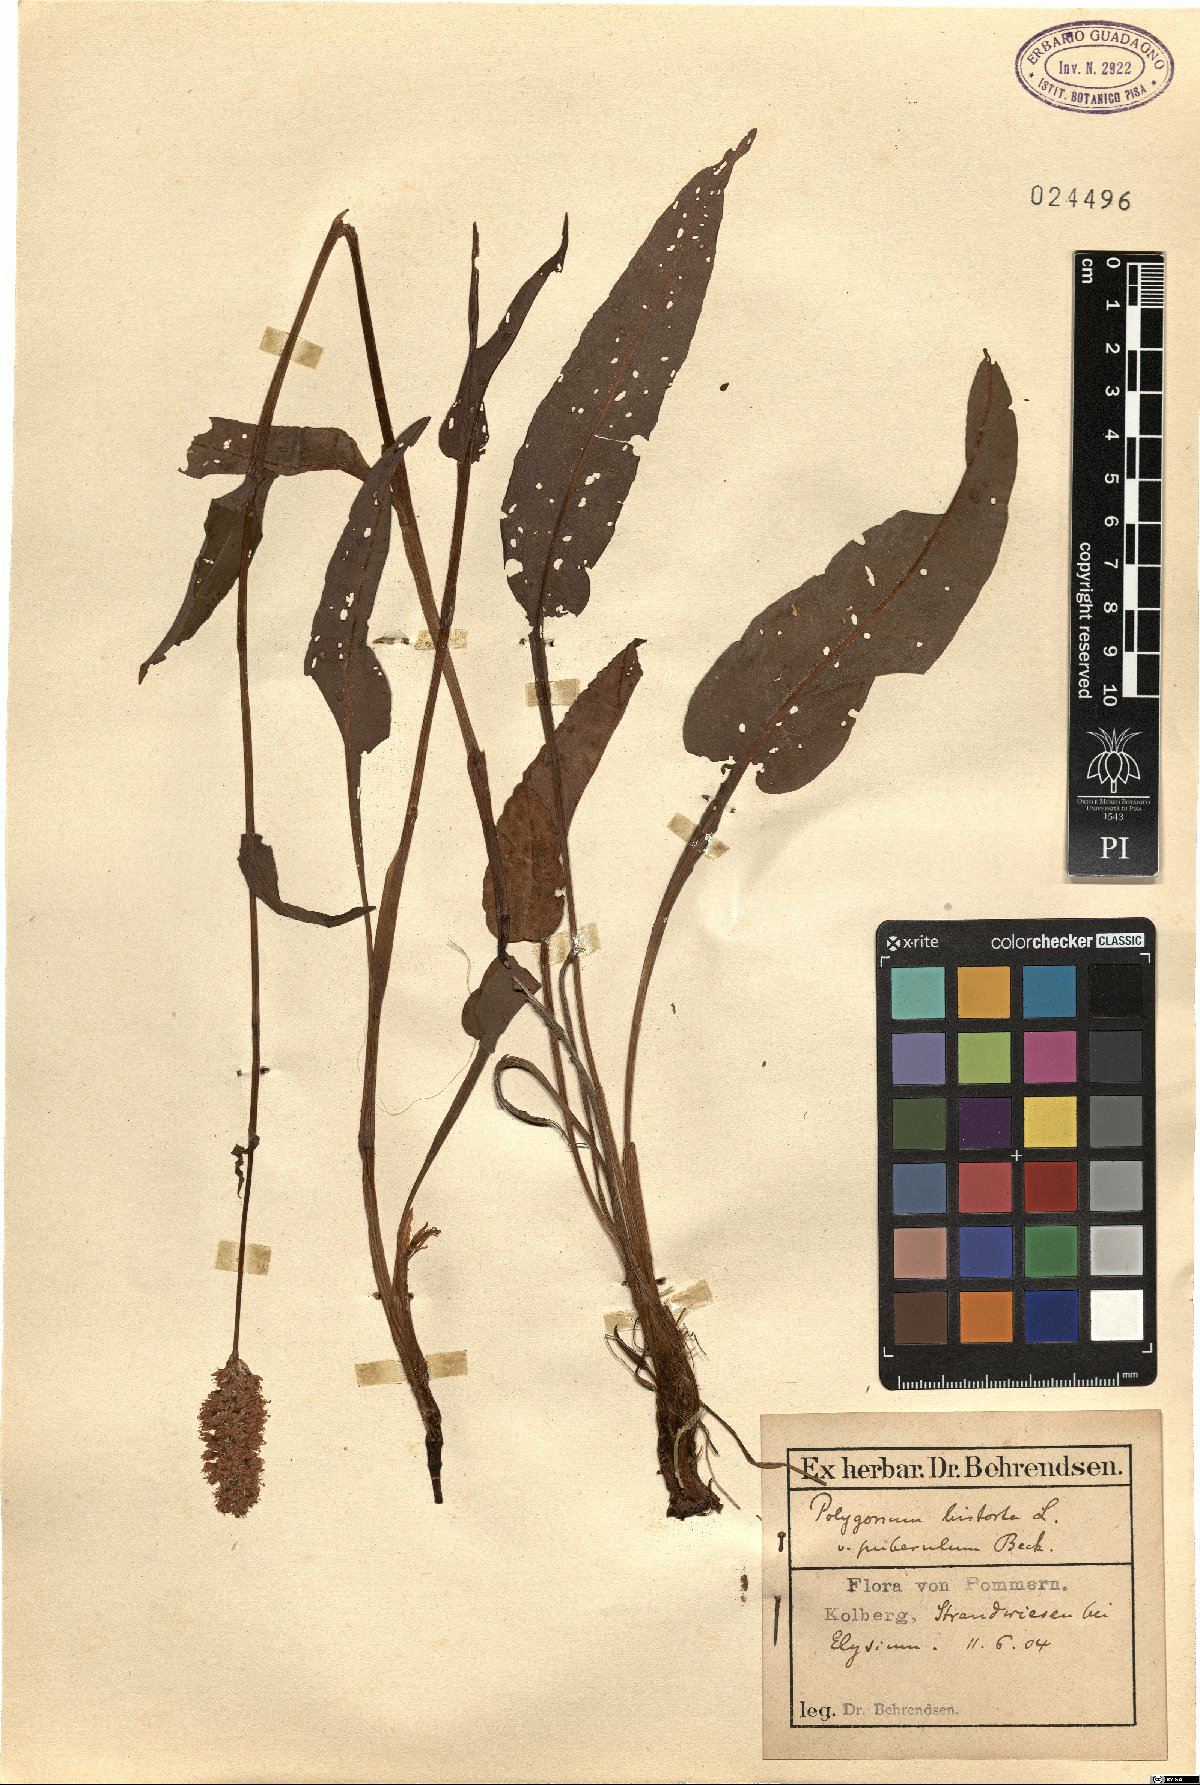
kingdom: Plantae
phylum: Tracheophyta
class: Magnoliopsida
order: Caryophyllales
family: Polygonaceae
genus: Polygonum
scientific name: Polygonum bistorta
